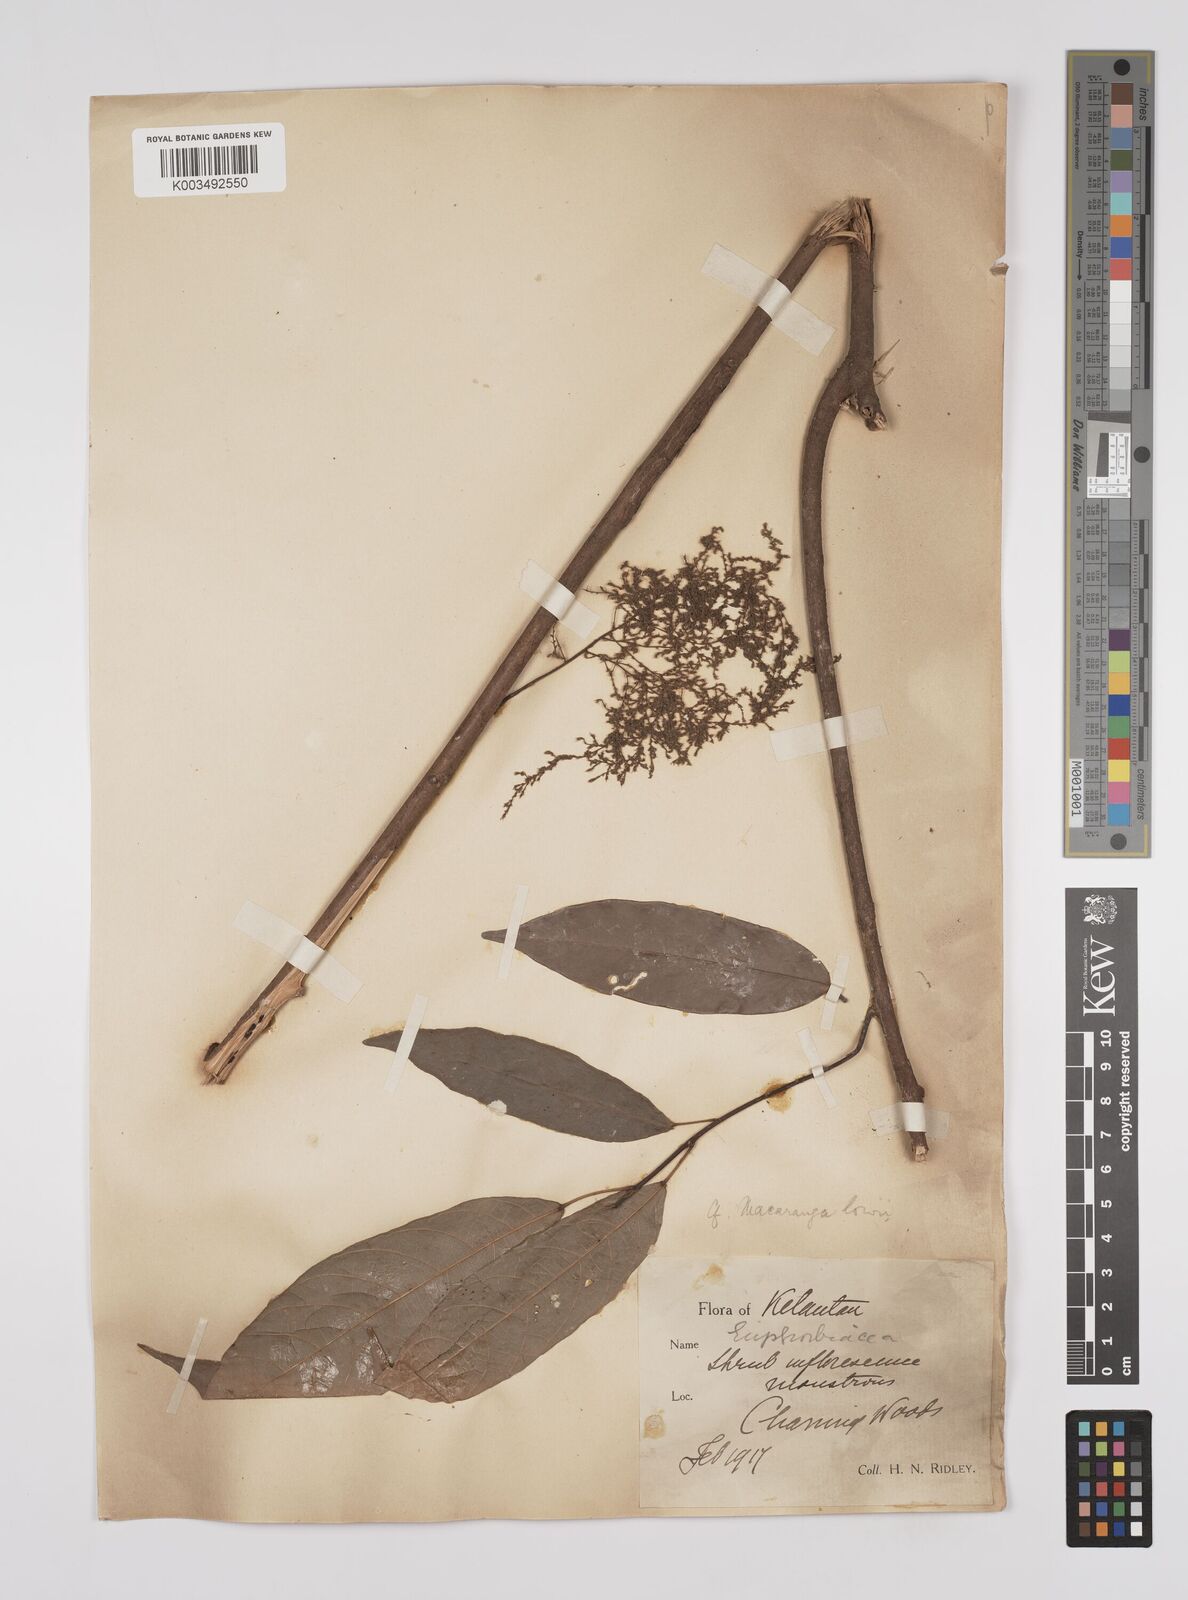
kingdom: Plantae
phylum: Tracheophyta
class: Magnoliopsida
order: Malpighiales
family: Euphorbiaceae
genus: Macaranga
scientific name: Macaranga lowii
